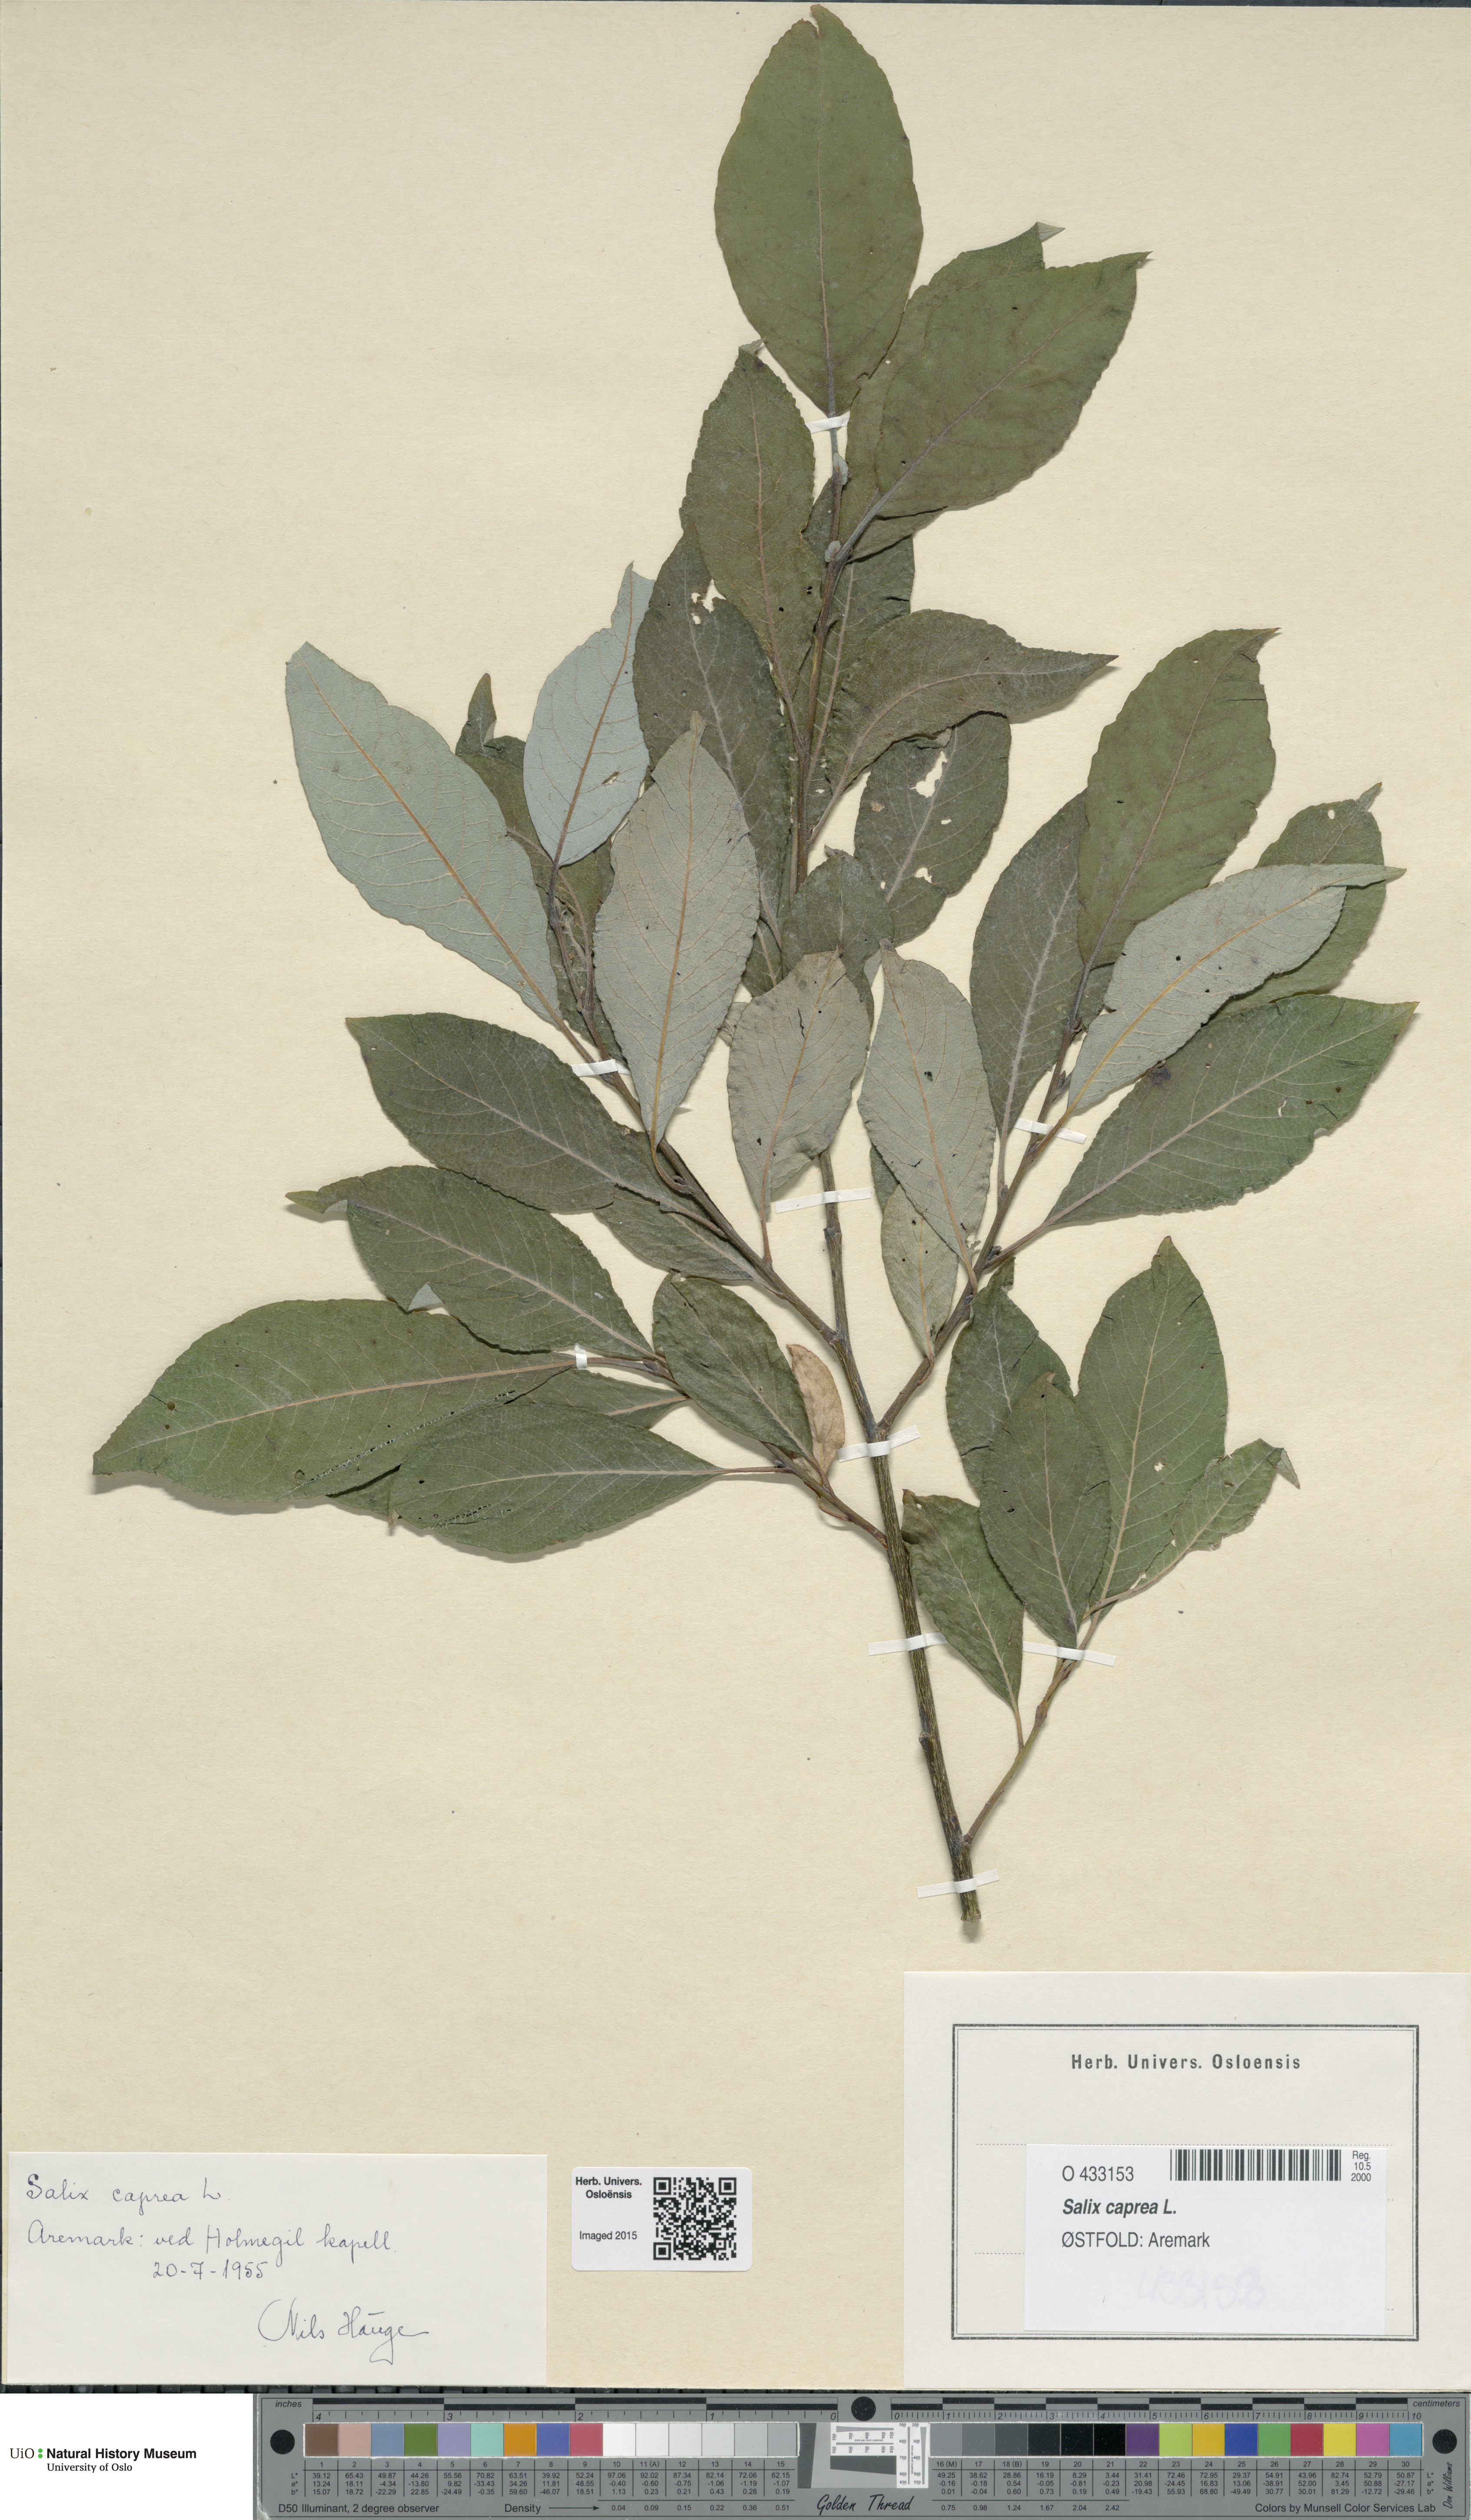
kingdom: Plantae
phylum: Tracheophyta
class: Magnoliopsida
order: Malpighiales
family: Salicaceae
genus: Salix
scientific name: Salix caprea
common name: Goat willow
